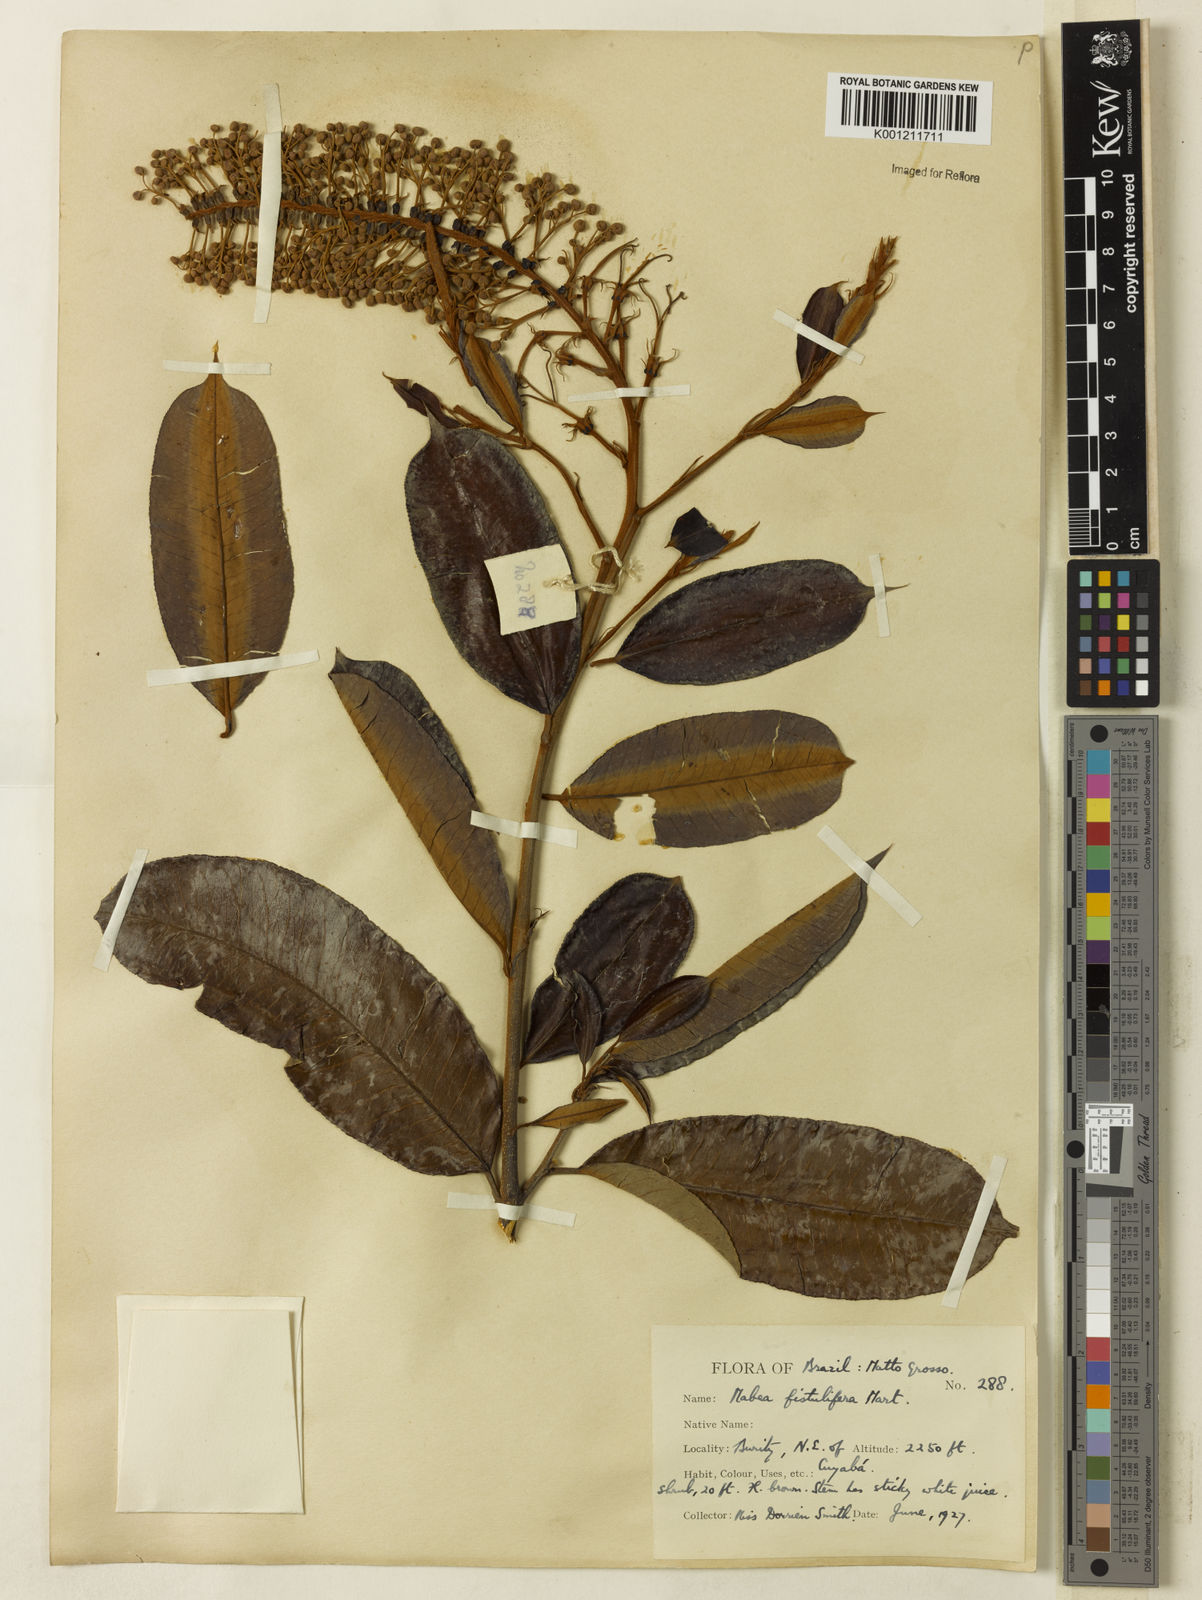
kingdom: Plantae
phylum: Tracheophyta
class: Magnoliopsida
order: Malpighiales
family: Euphorbiaceae
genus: Mabea
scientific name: Mabea fistulifera
